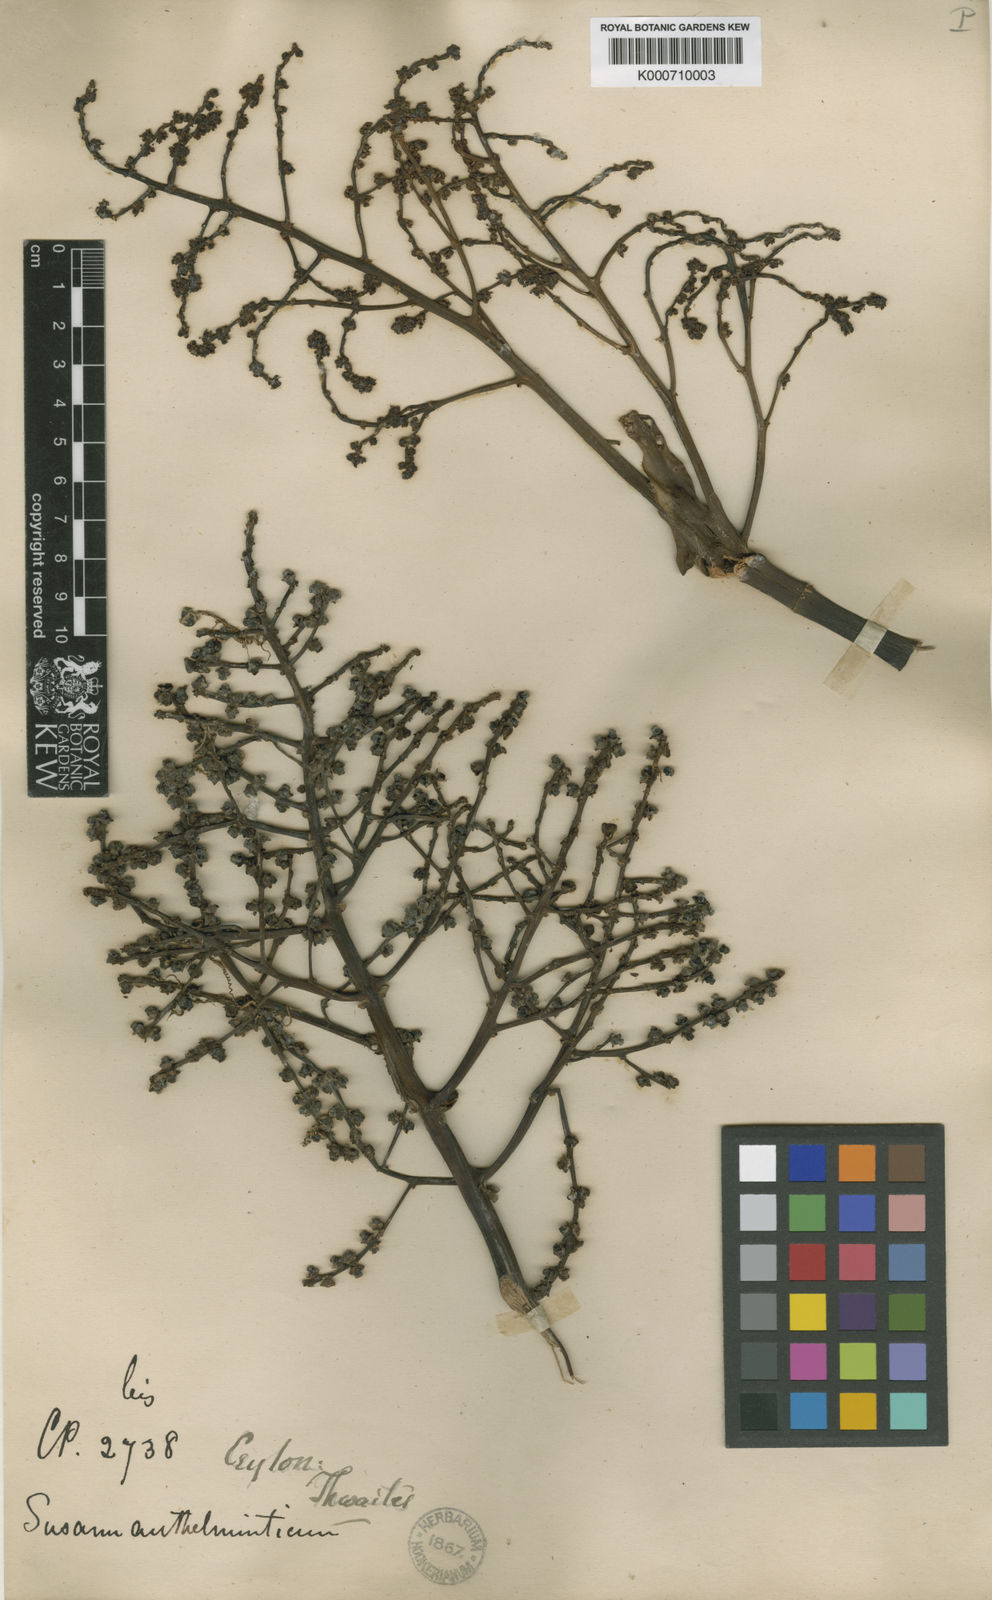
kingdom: Plantae
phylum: Tracheophyta
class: Liliopsida
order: Commelinales
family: Hanguanaceae
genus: Hanguana
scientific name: Hanguana malayana
